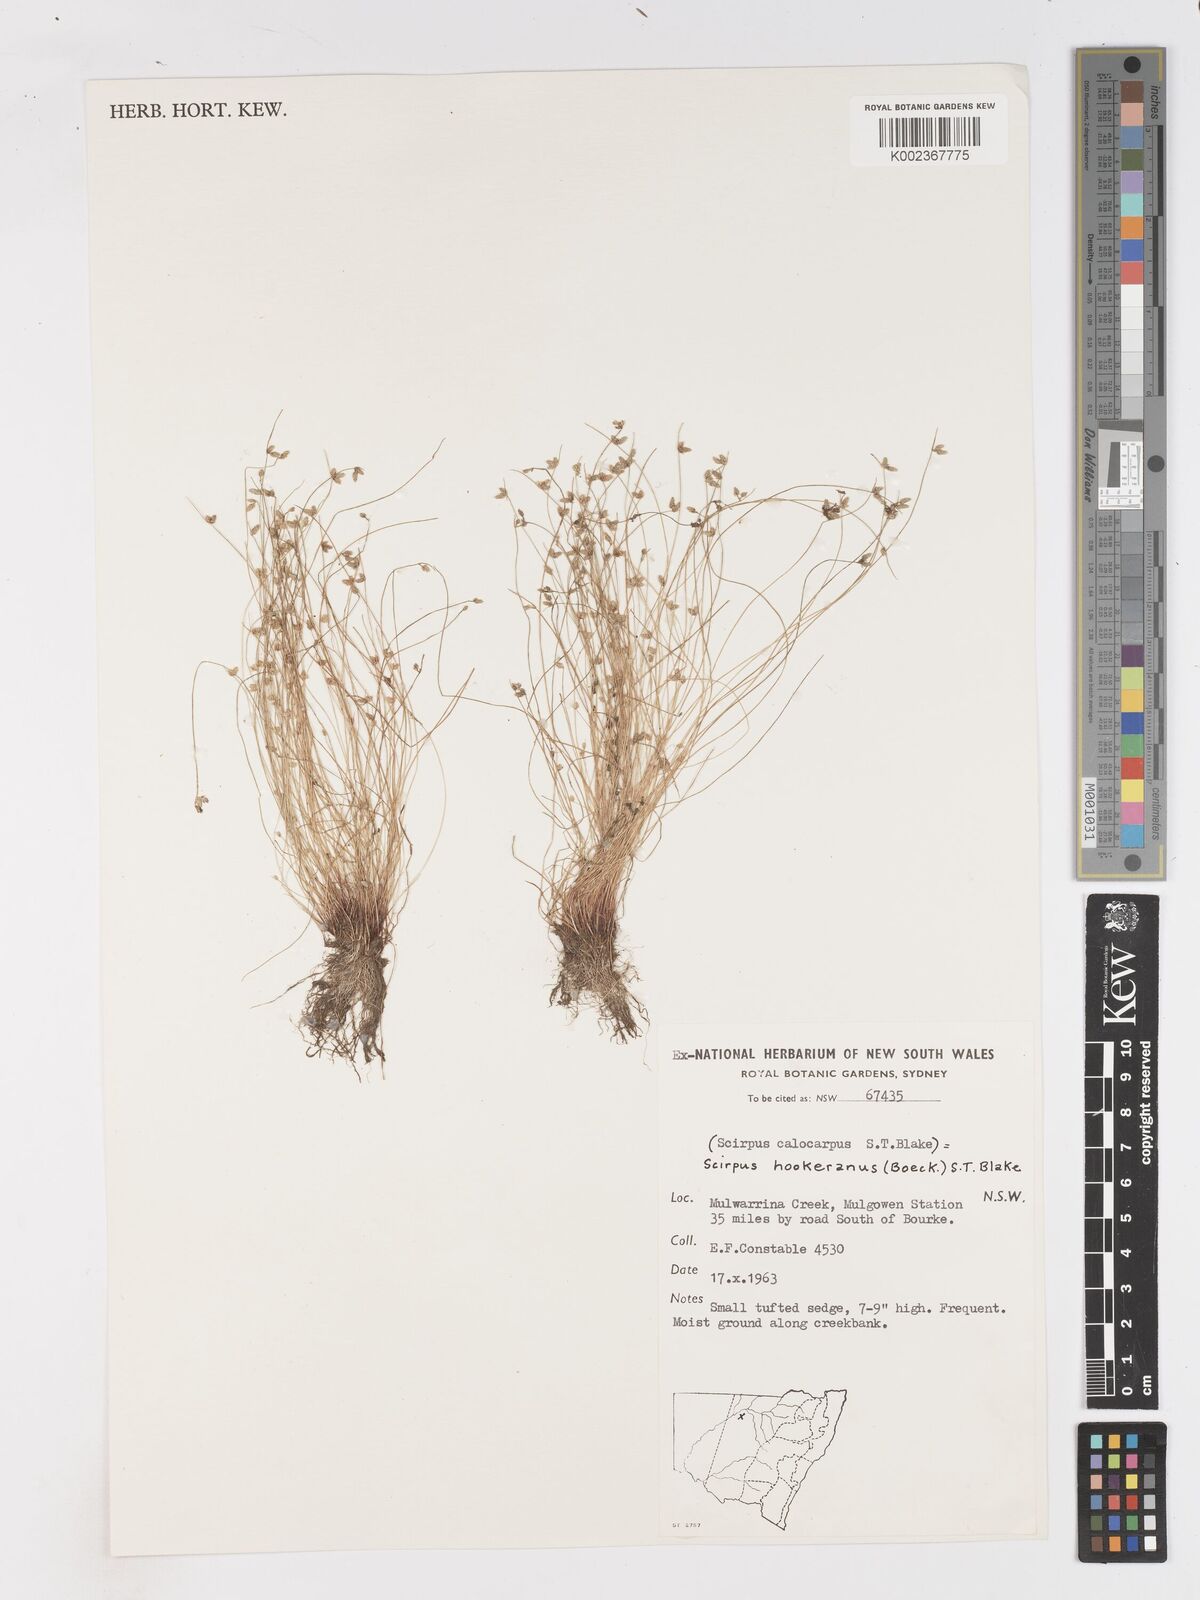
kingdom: Plantae
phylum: Tracheophyta
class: Liliopsida
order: Poales
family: Cyperaceae
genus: Isolepis
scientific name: Isolepis multicaulis
